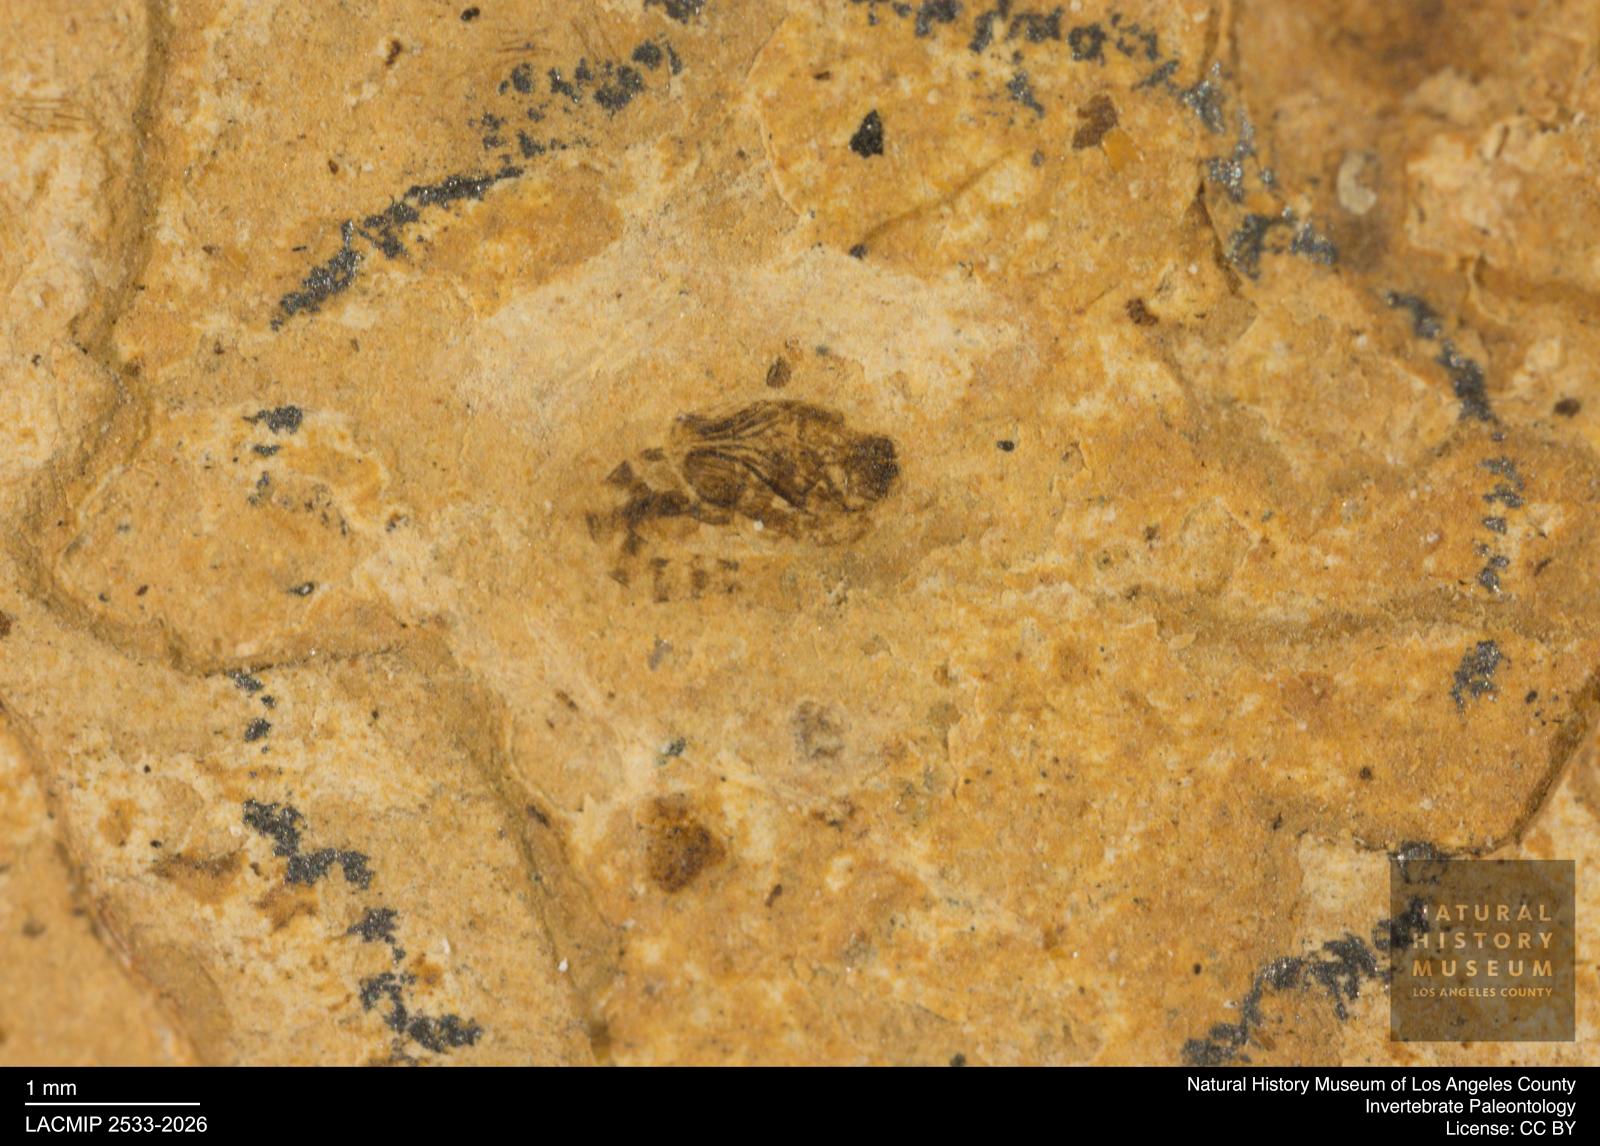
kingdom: Animalia
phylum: Arthropoda
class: Insecta
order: Diptera
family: Ceratopogonidae
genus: Ceratopogon
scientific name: Ceratopogon
